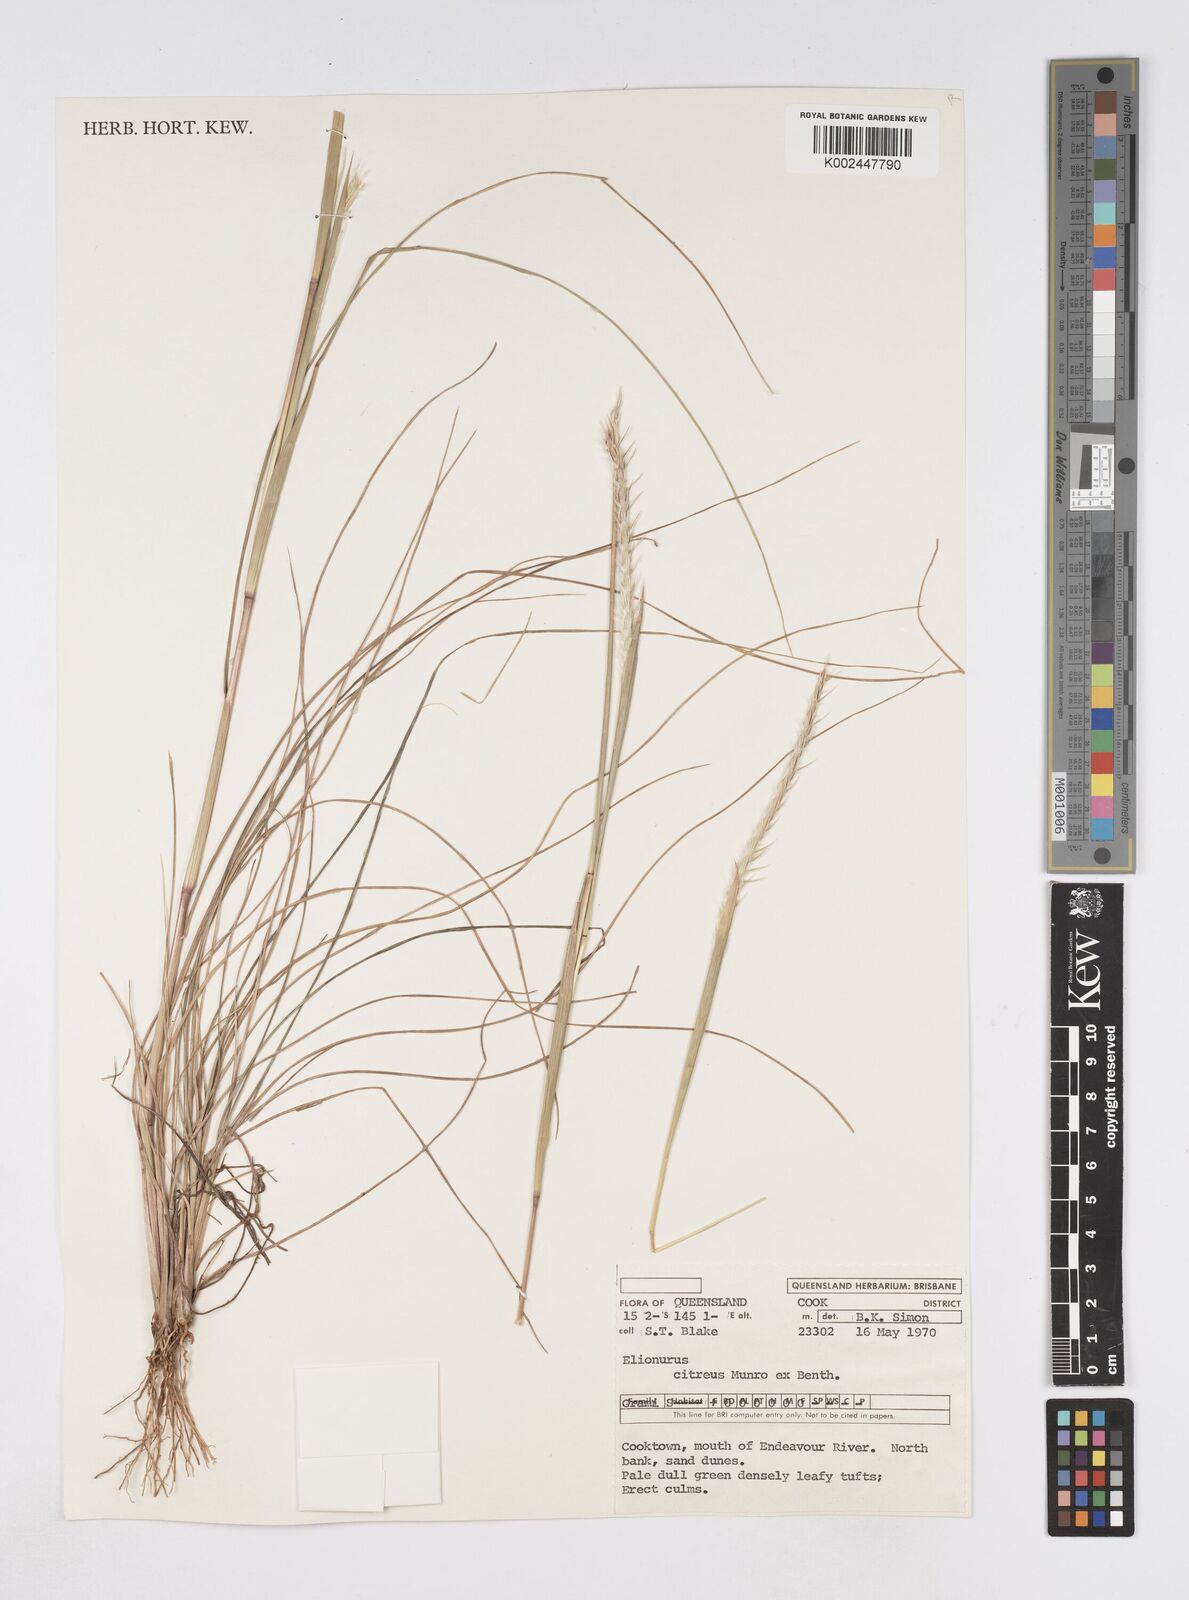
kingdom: Plantae
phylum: Tracheophyta
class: Liliopsida
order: Poales
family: Poaceae
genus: Elionurus
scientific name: Elionurus citreus
